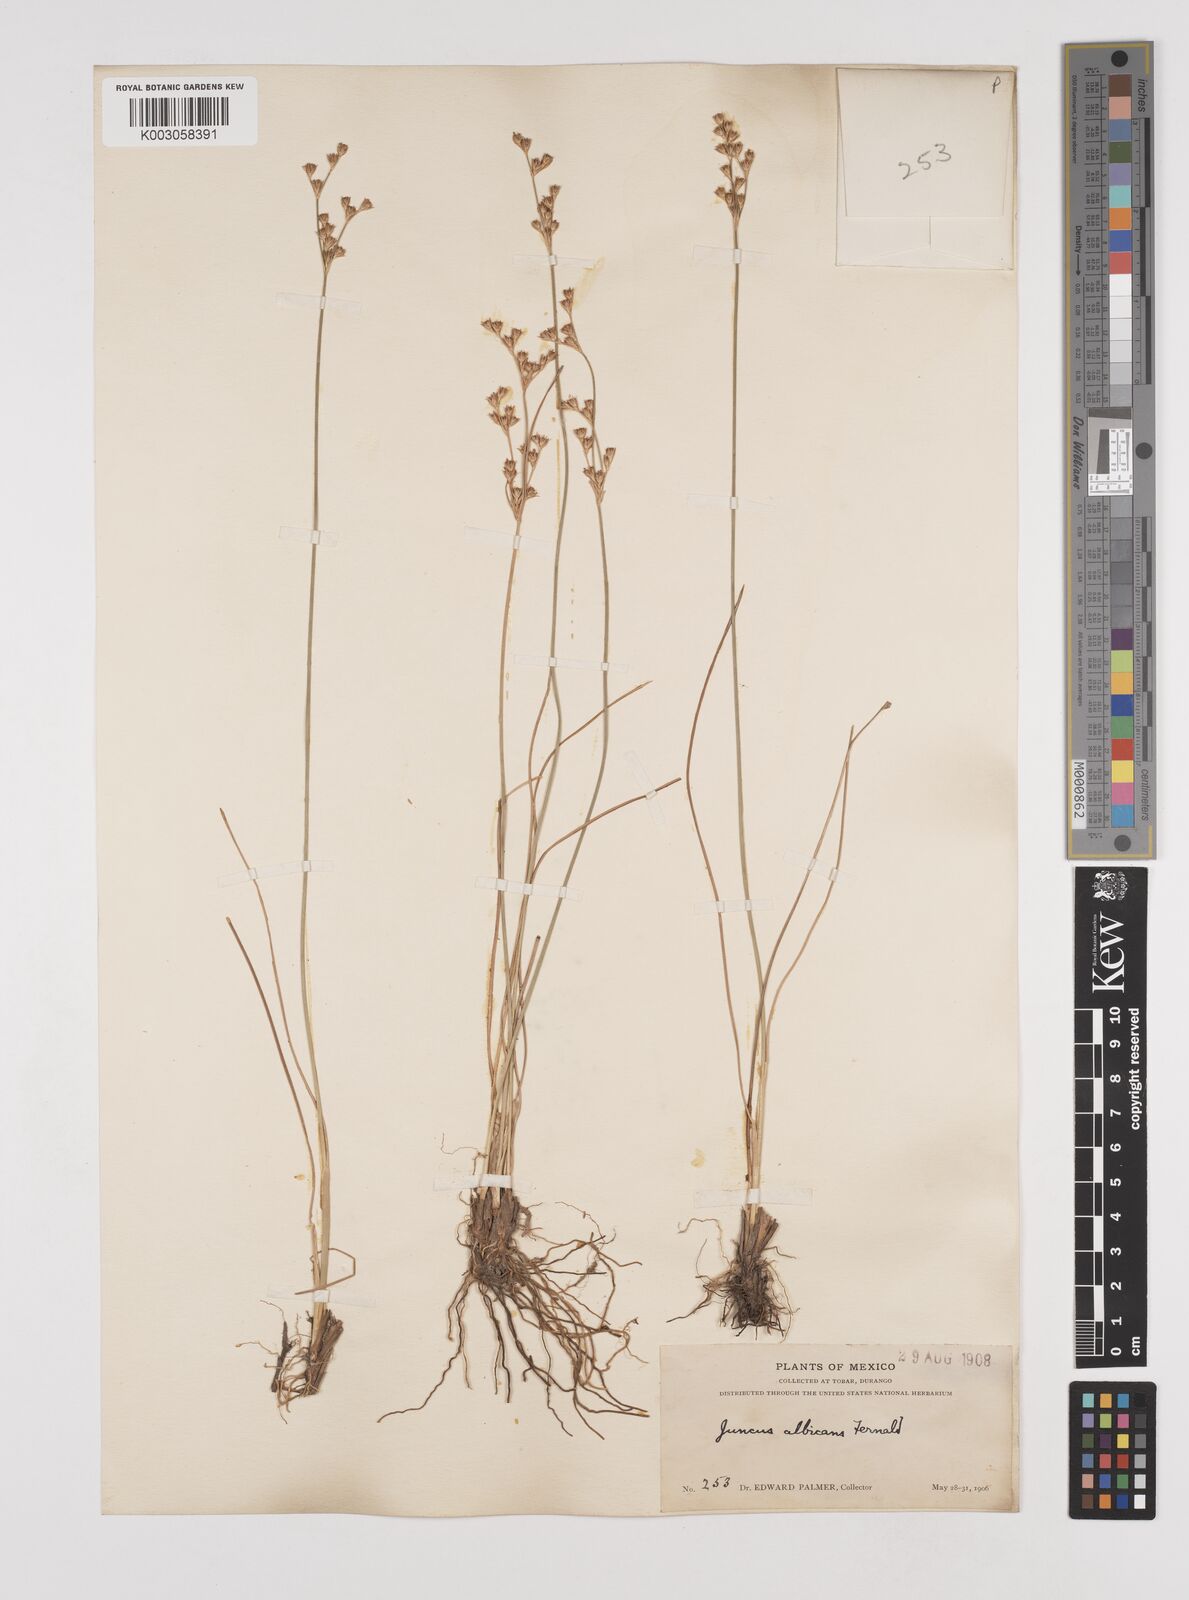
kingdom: Plantae
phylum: Tracheophyta
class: Liliopsida
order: Poales
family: Juncaceae
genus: Juncus
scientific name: Juncus dichotomus
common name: Forked rush
